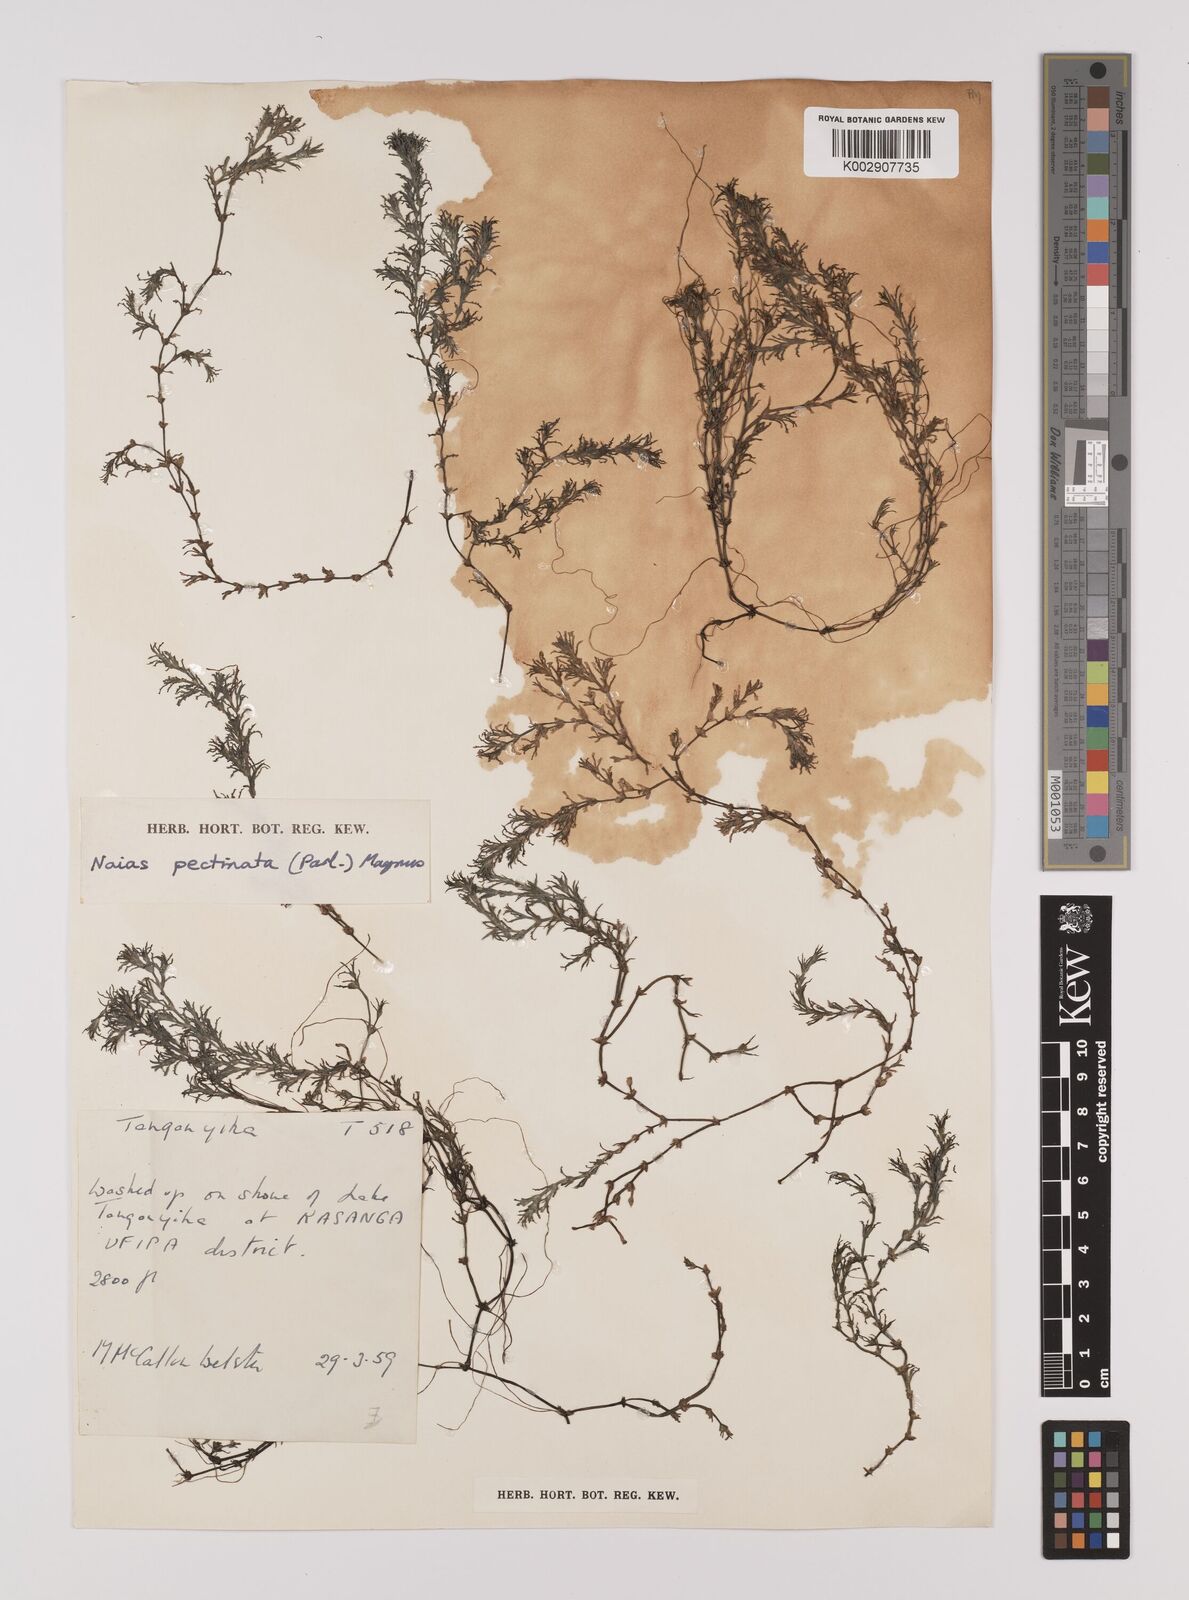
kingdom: Plantae
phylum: Tracheophyta
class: Liliopsida
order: Alismatales
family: Hydrocharitaceae
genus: Najas
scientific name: Najas horrida
